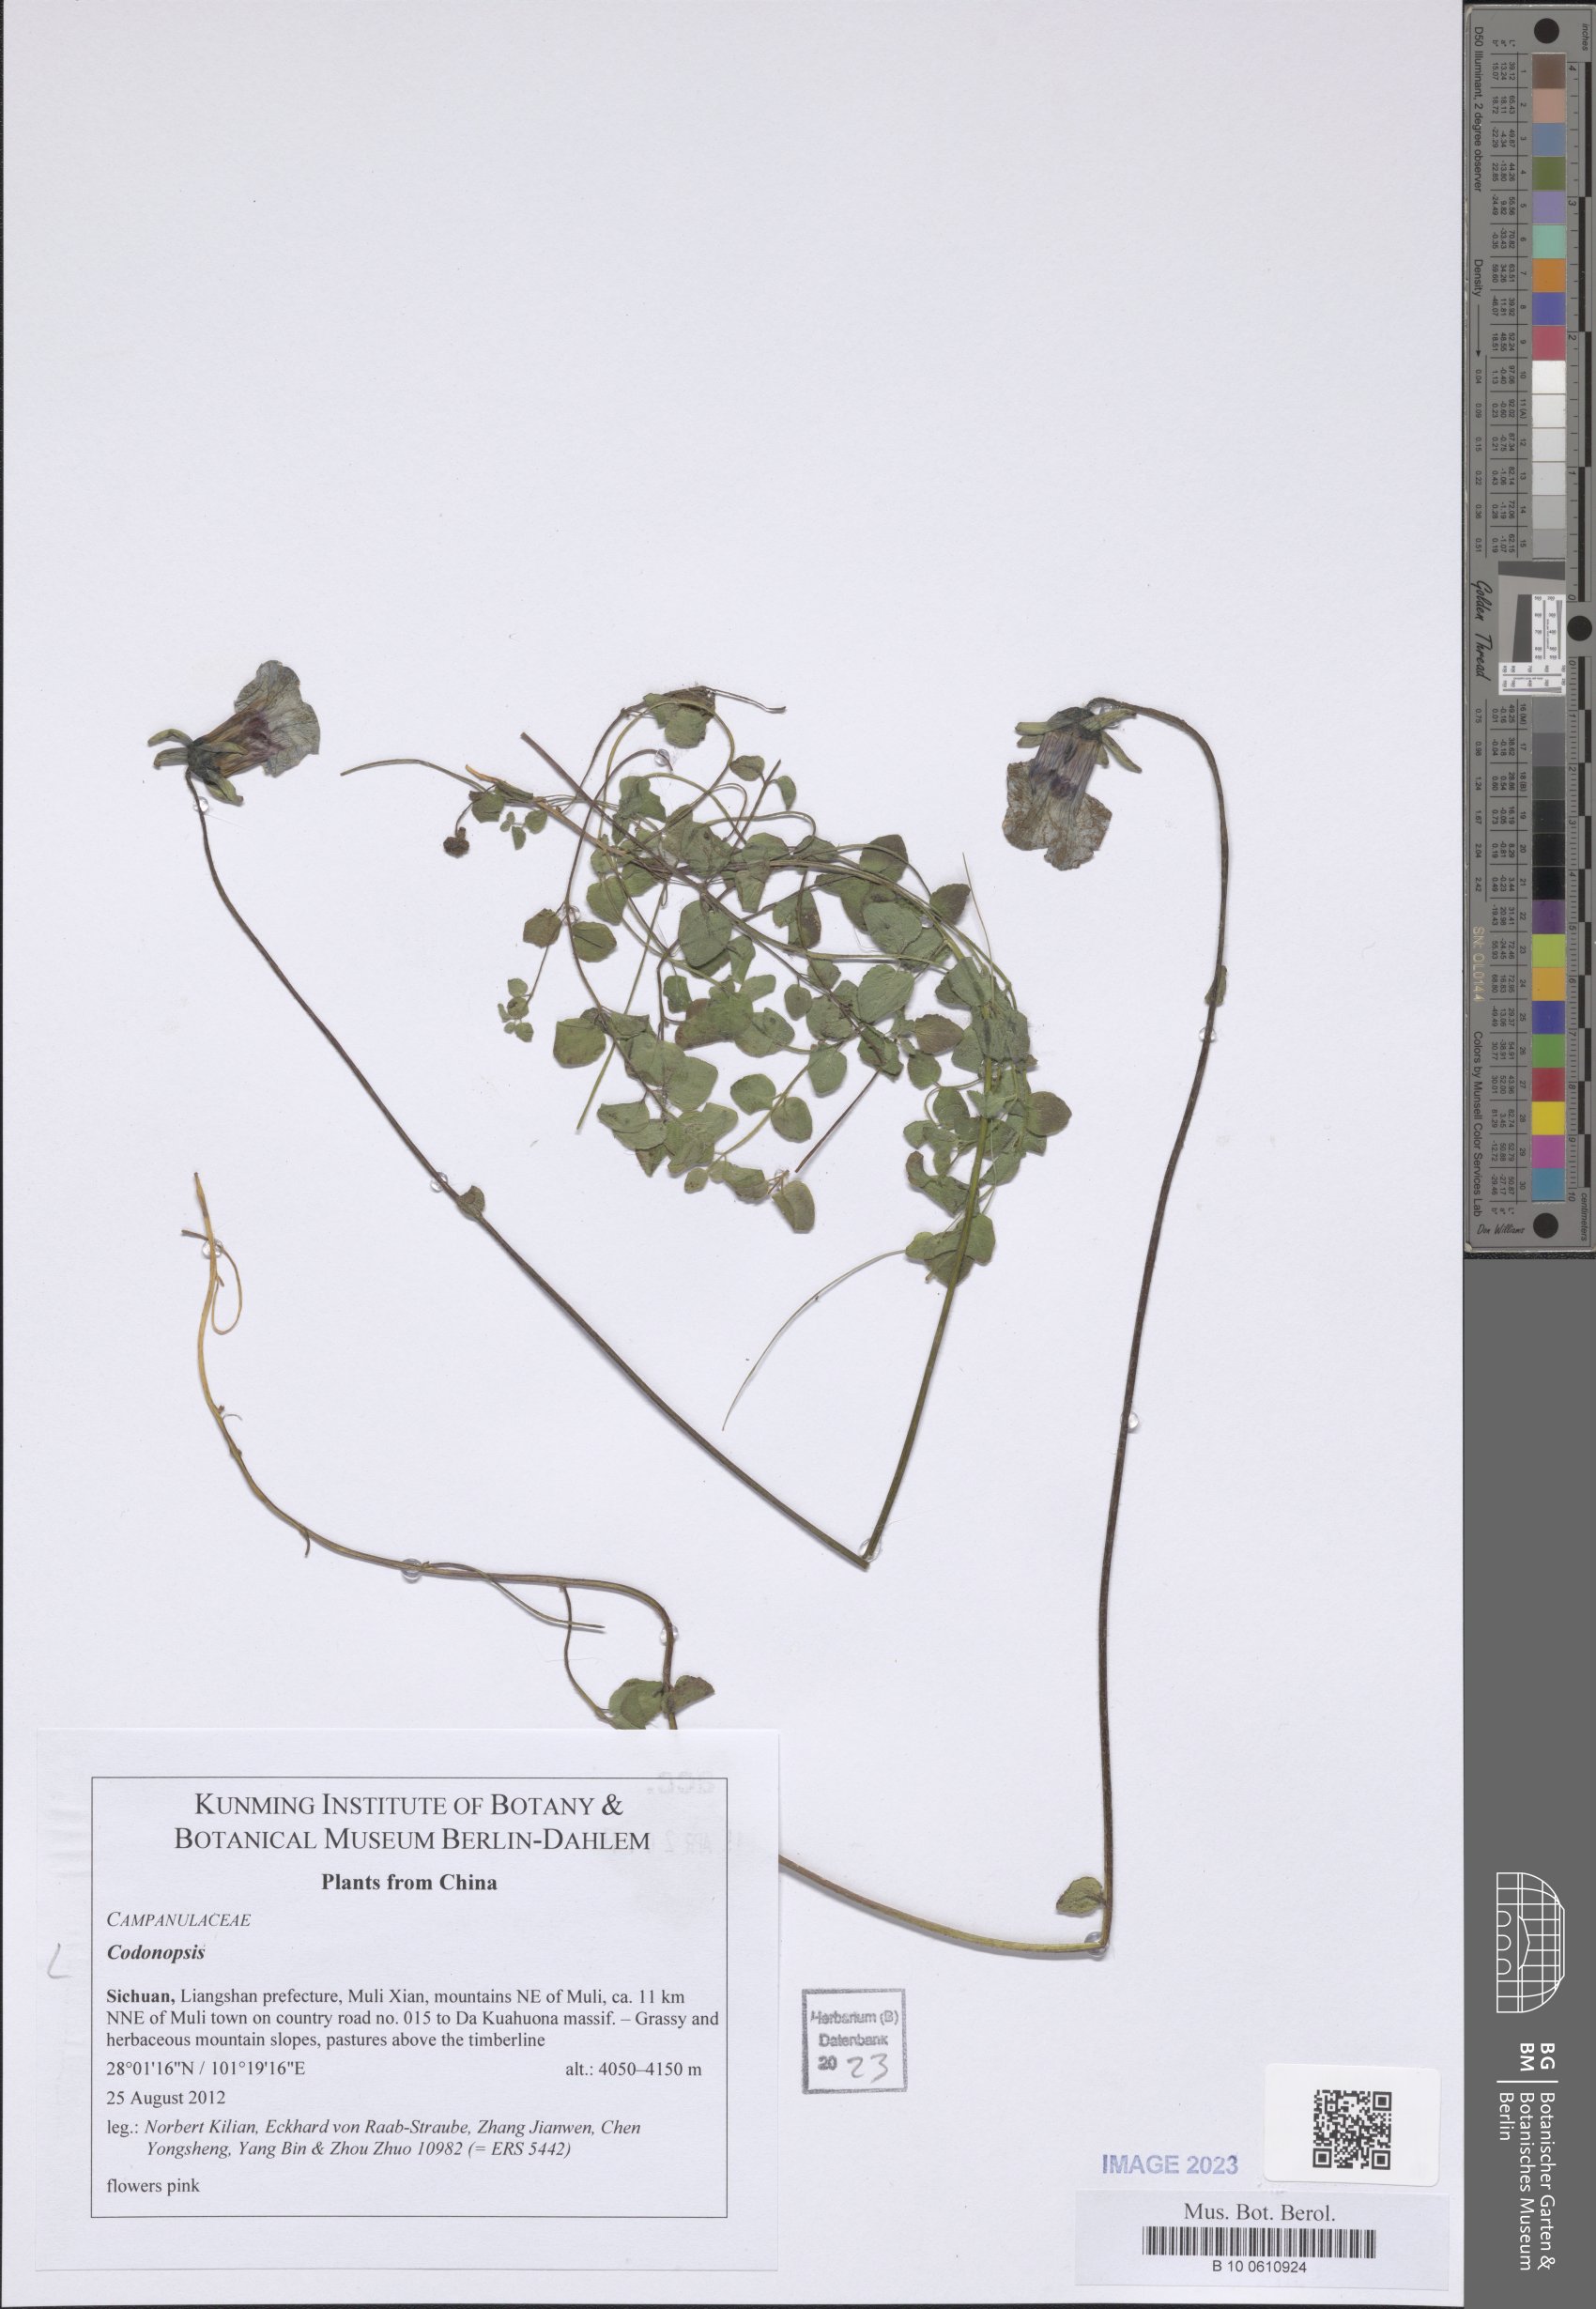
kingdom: Plantae
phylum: Tracheophyta
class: Magnoliopsida
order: Asterales
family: Campanulaceae
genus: Codonopsis
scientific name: Codonopsis
